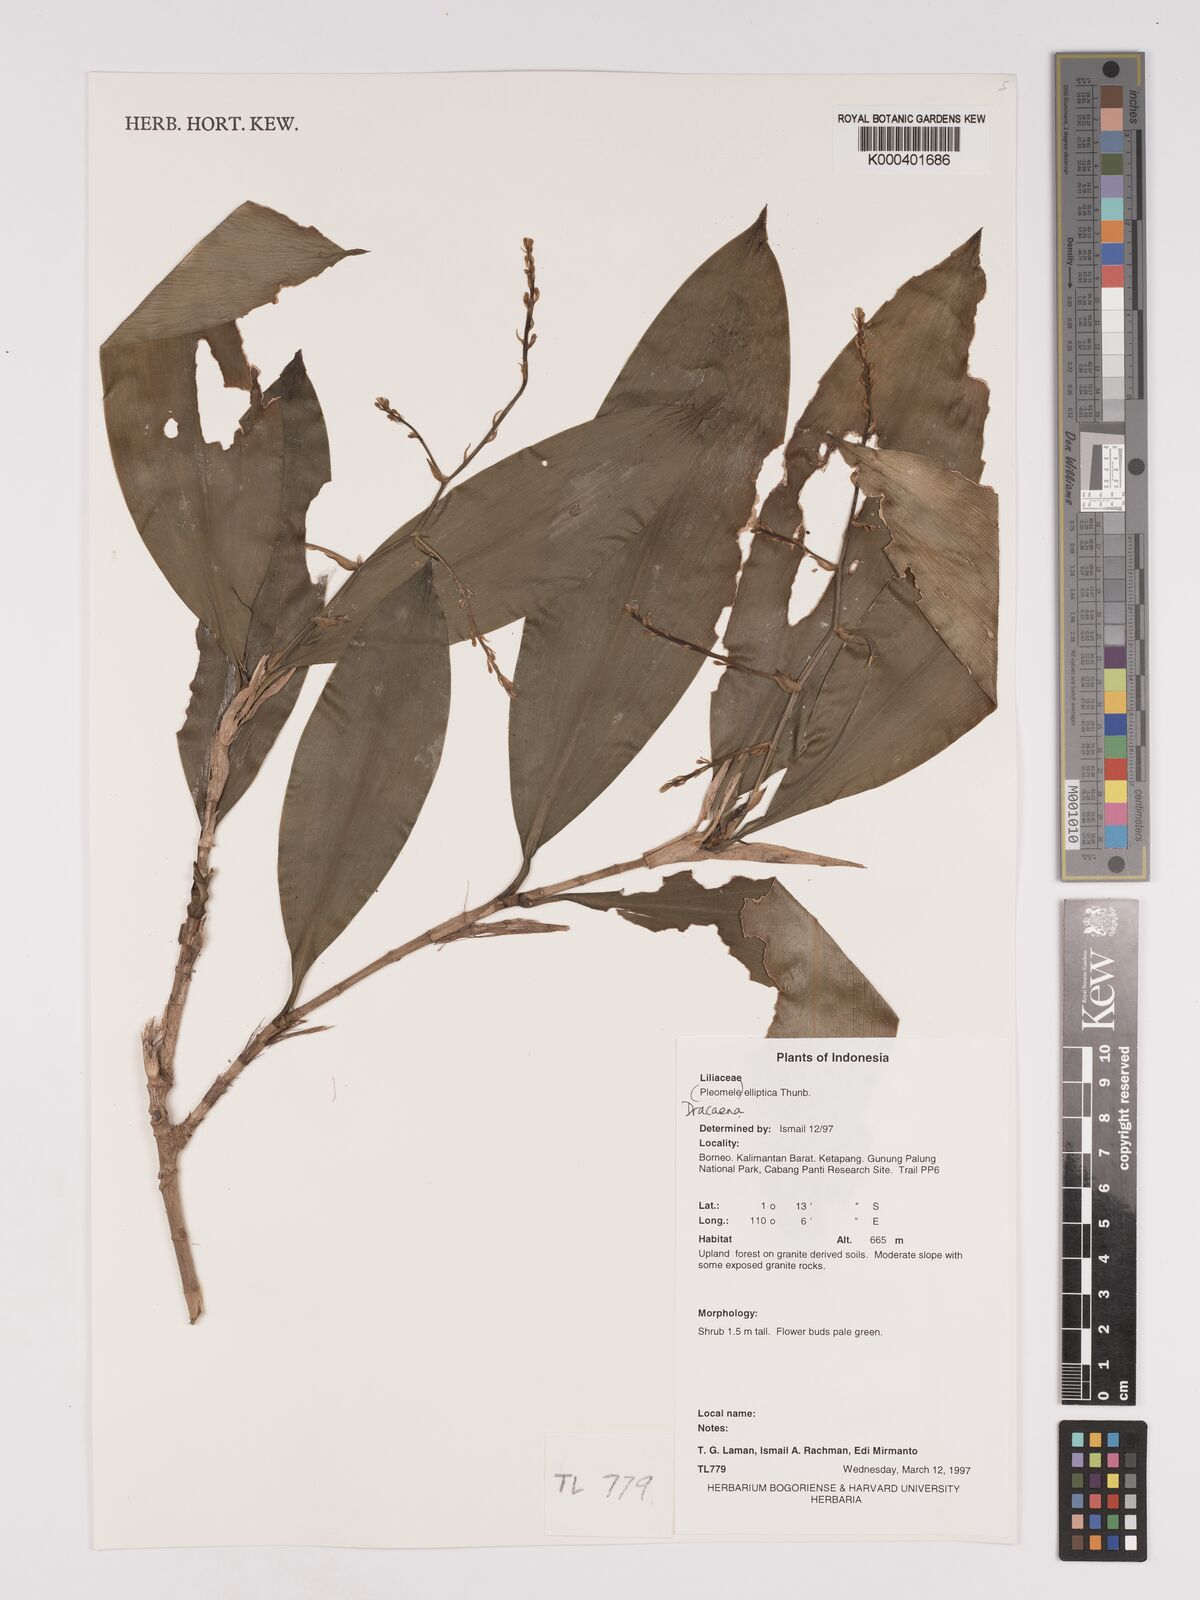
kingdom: Plantae
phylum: Tracheophyta
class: Liliopsida
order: Asparagales
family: Asparagaceae
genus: Dracaena
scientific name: Dracaena elliptica
